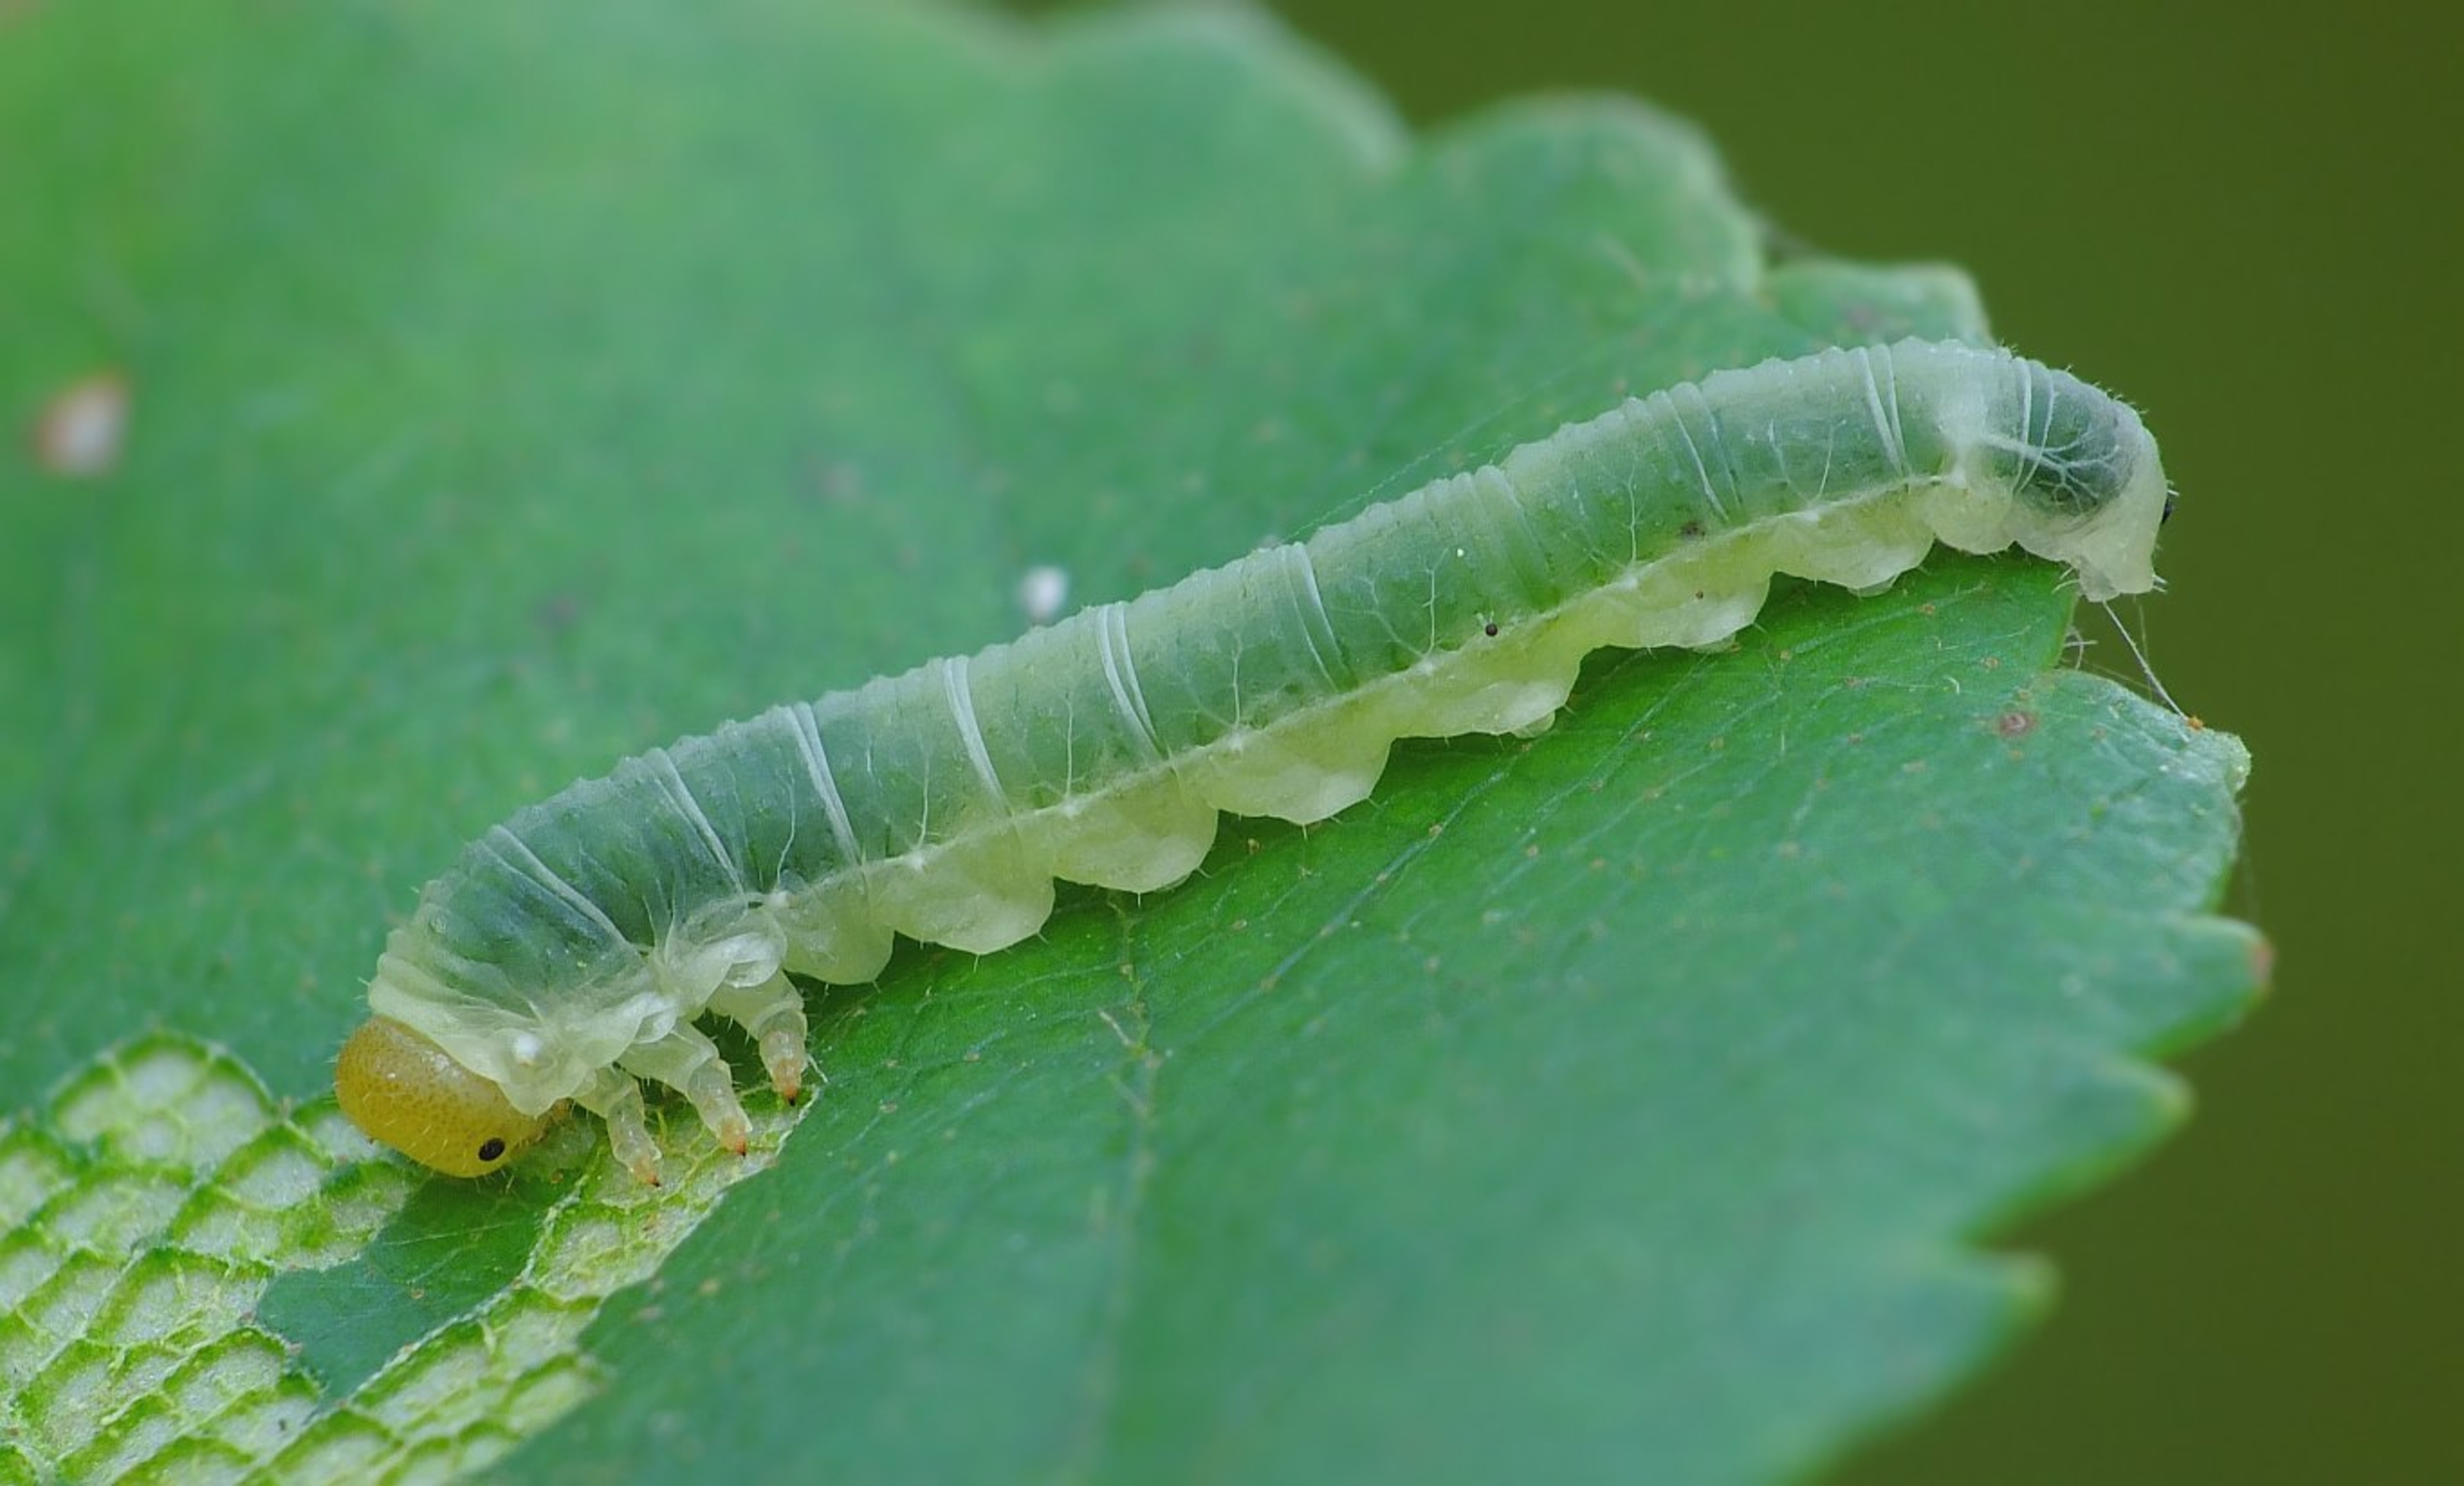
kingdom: Animalia
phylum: Arthropoda
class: Insecta
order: Hymenoptera
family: Tenthredinidae
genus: Dineura
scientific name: Dineura virididorsata
